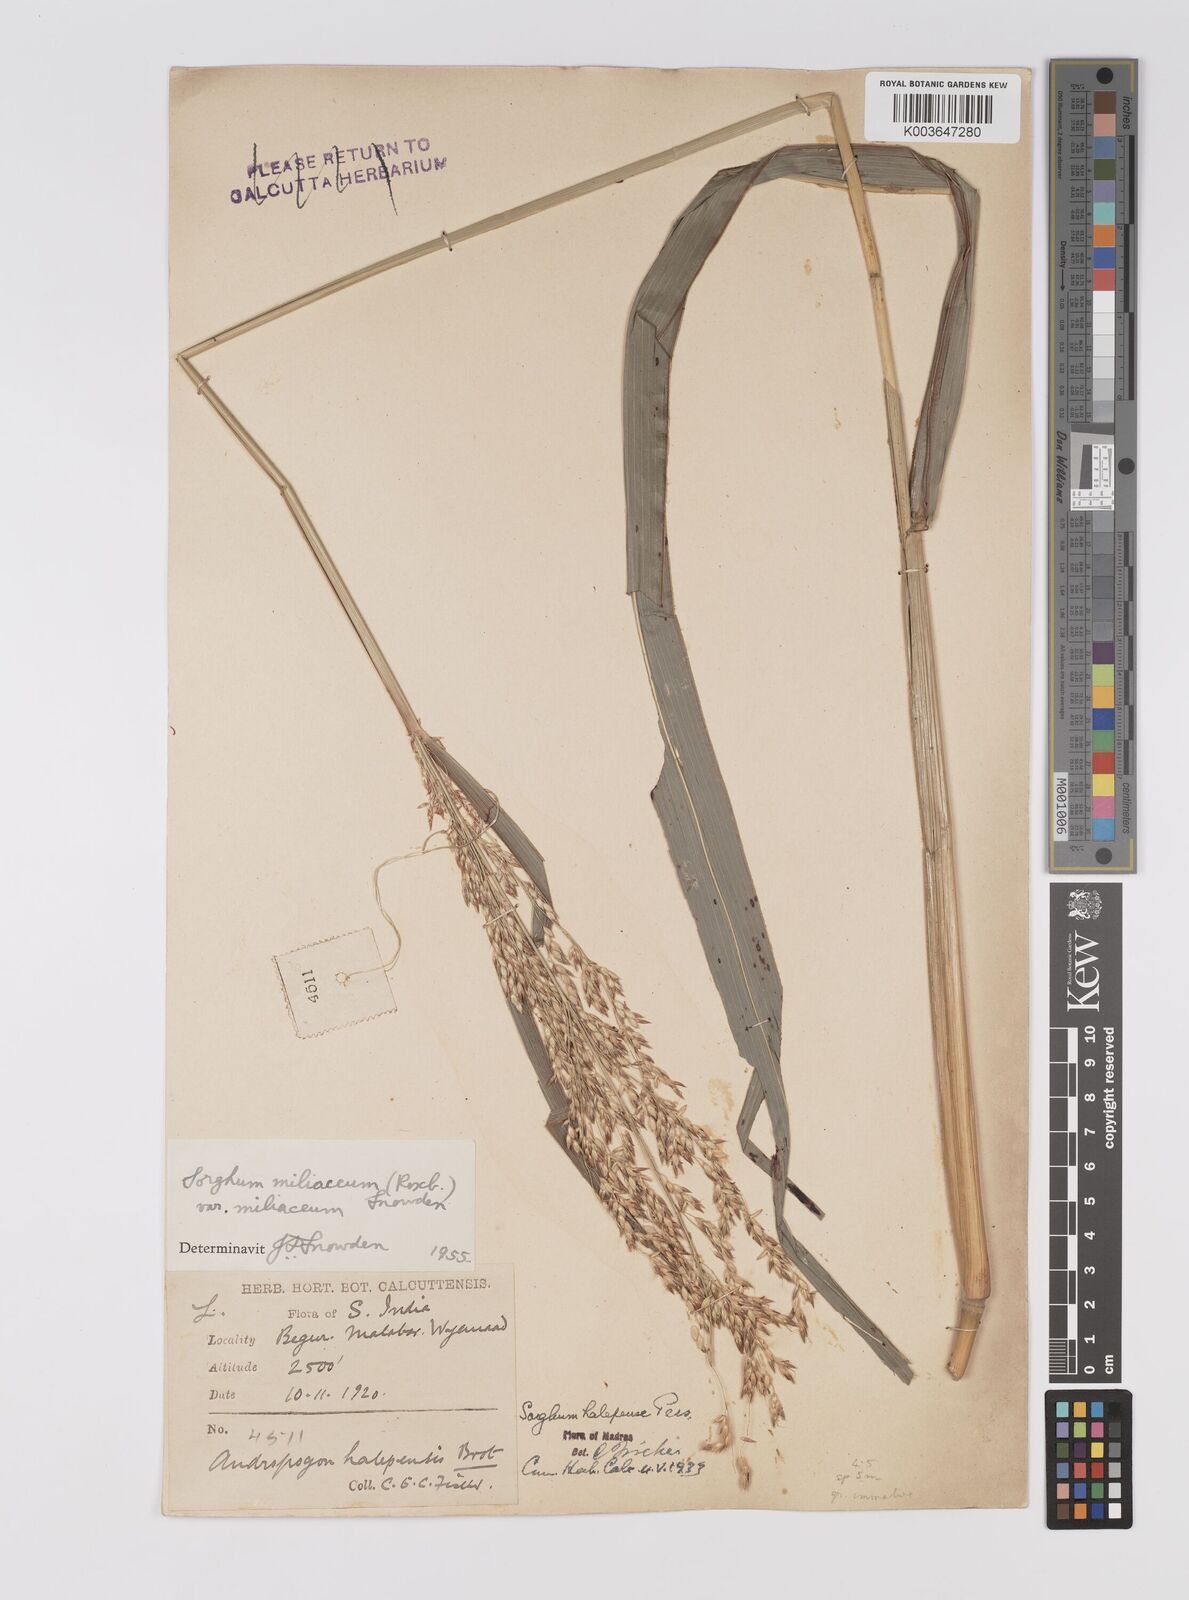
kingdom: Plantae
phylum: Tracheophyta
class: Liliopsida
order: Poales
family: Poaceae
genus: Sorghum
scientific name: Sorghum halepense
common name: Johnson-grass
